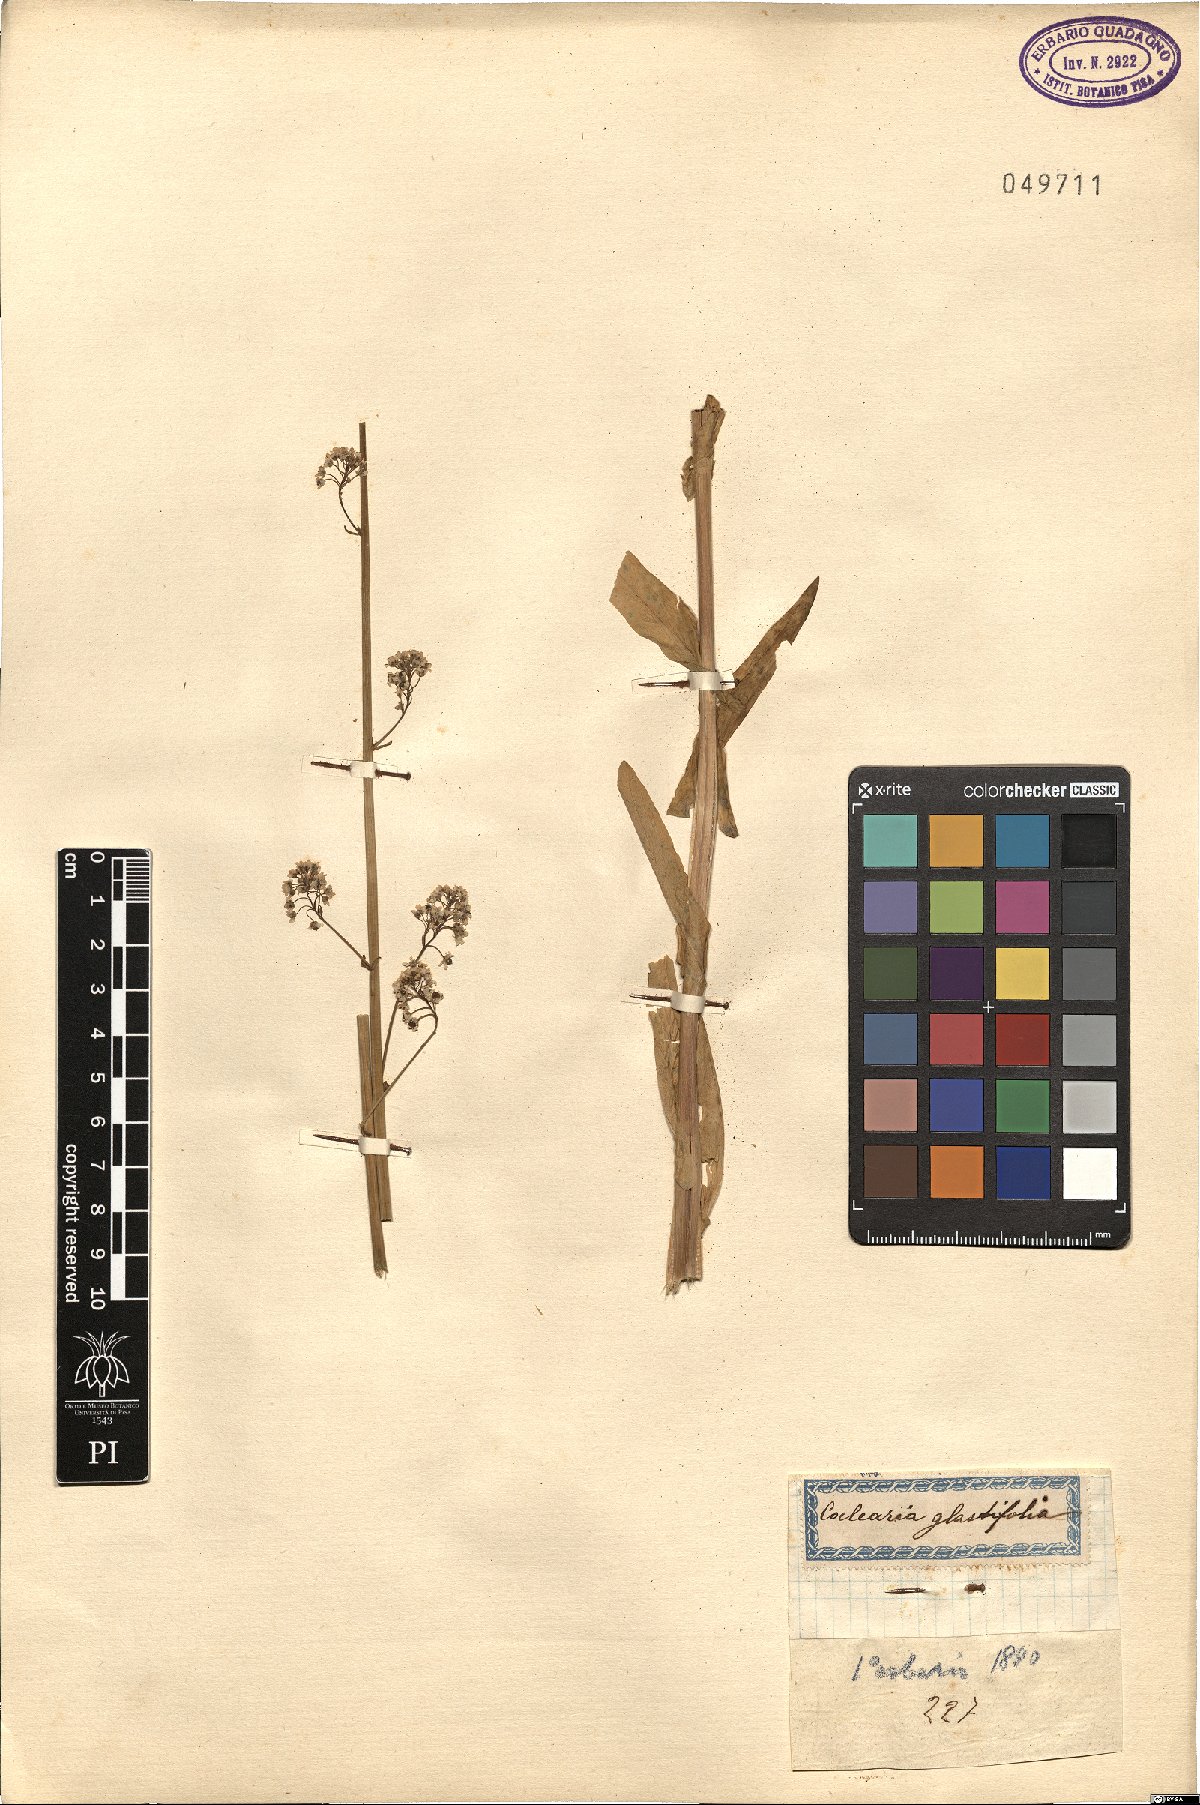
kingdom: Plantae
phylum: Tracheophyta
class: Magnoliopsida
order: Brassicales
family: Brassicaceae
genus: Ionopsidium
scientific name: Ionopsidium glastifolium
